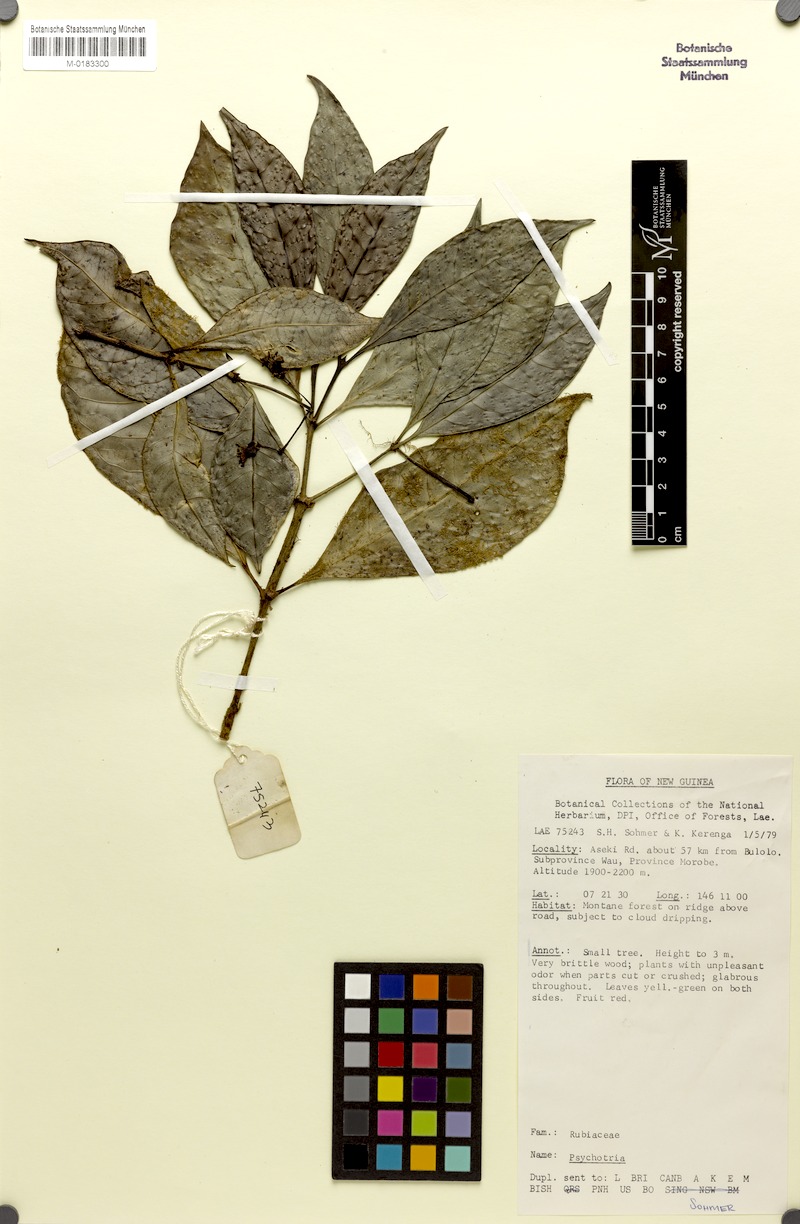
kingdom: Plantae
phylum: Tracheophyta
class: Magnoliopsida
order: Gentianales
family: Rubiaceae
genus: Eumachia
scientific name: Eumachia leptothyrsa
